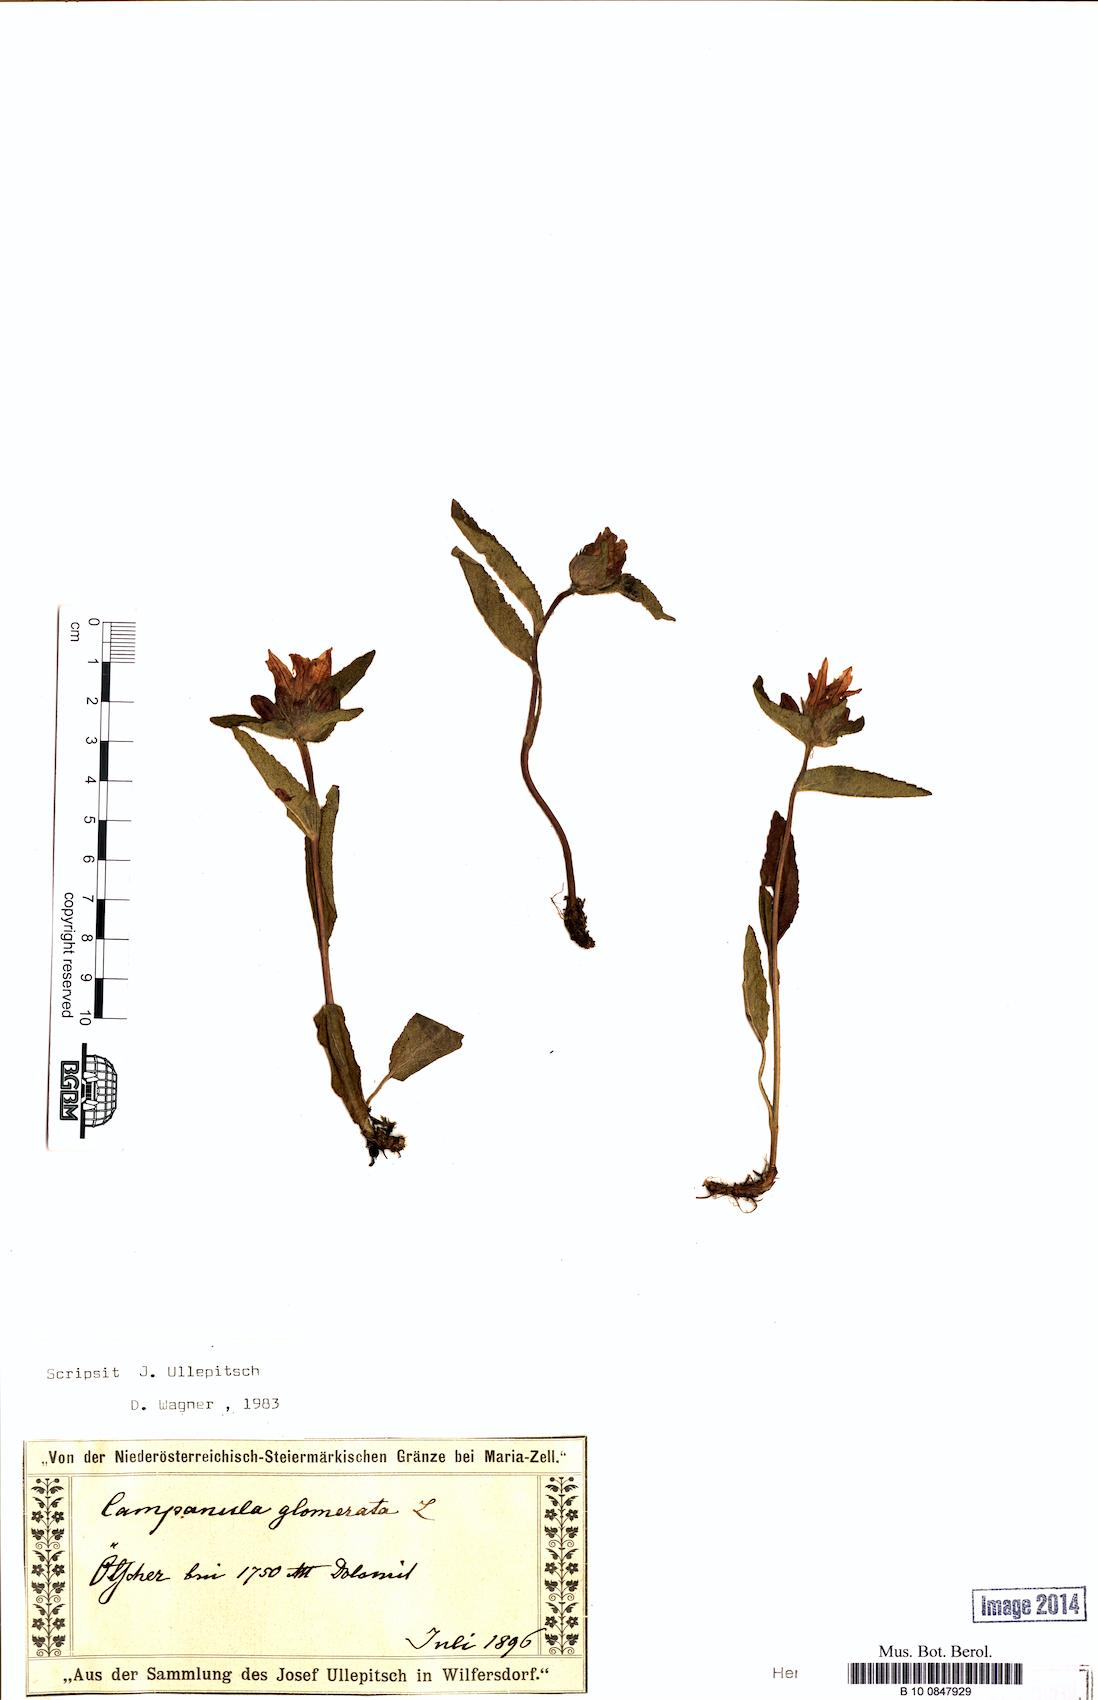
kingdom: Plantae
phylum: Tracheophyta
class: Magnoliopsida
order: Asterales
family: Campanulaceae
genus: Campanula
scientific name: Campanula glomerata
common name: Clustered bellflower
